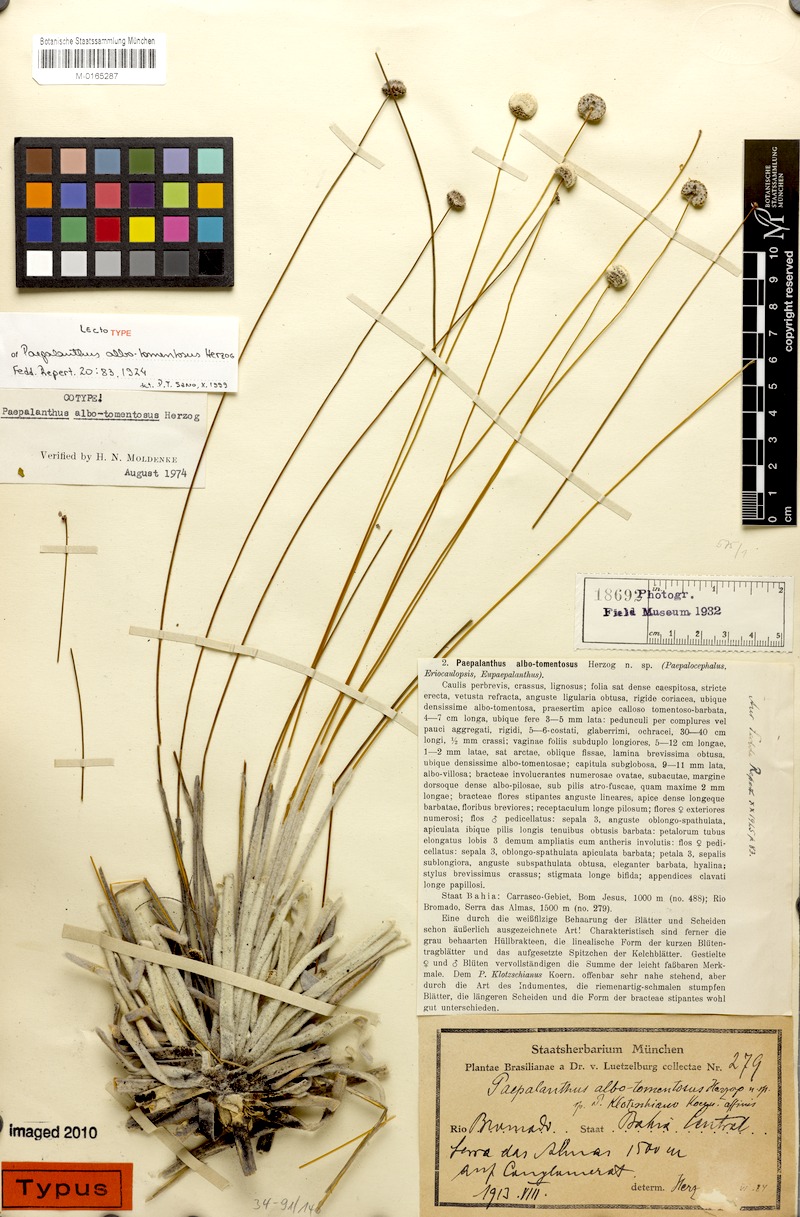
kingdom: Plantae
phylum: Tracheophyta
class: Liliopsida
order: Poales
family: Eriocaulaceae
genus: Paepalanthus
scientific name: Paepalanthus albotomentosus
